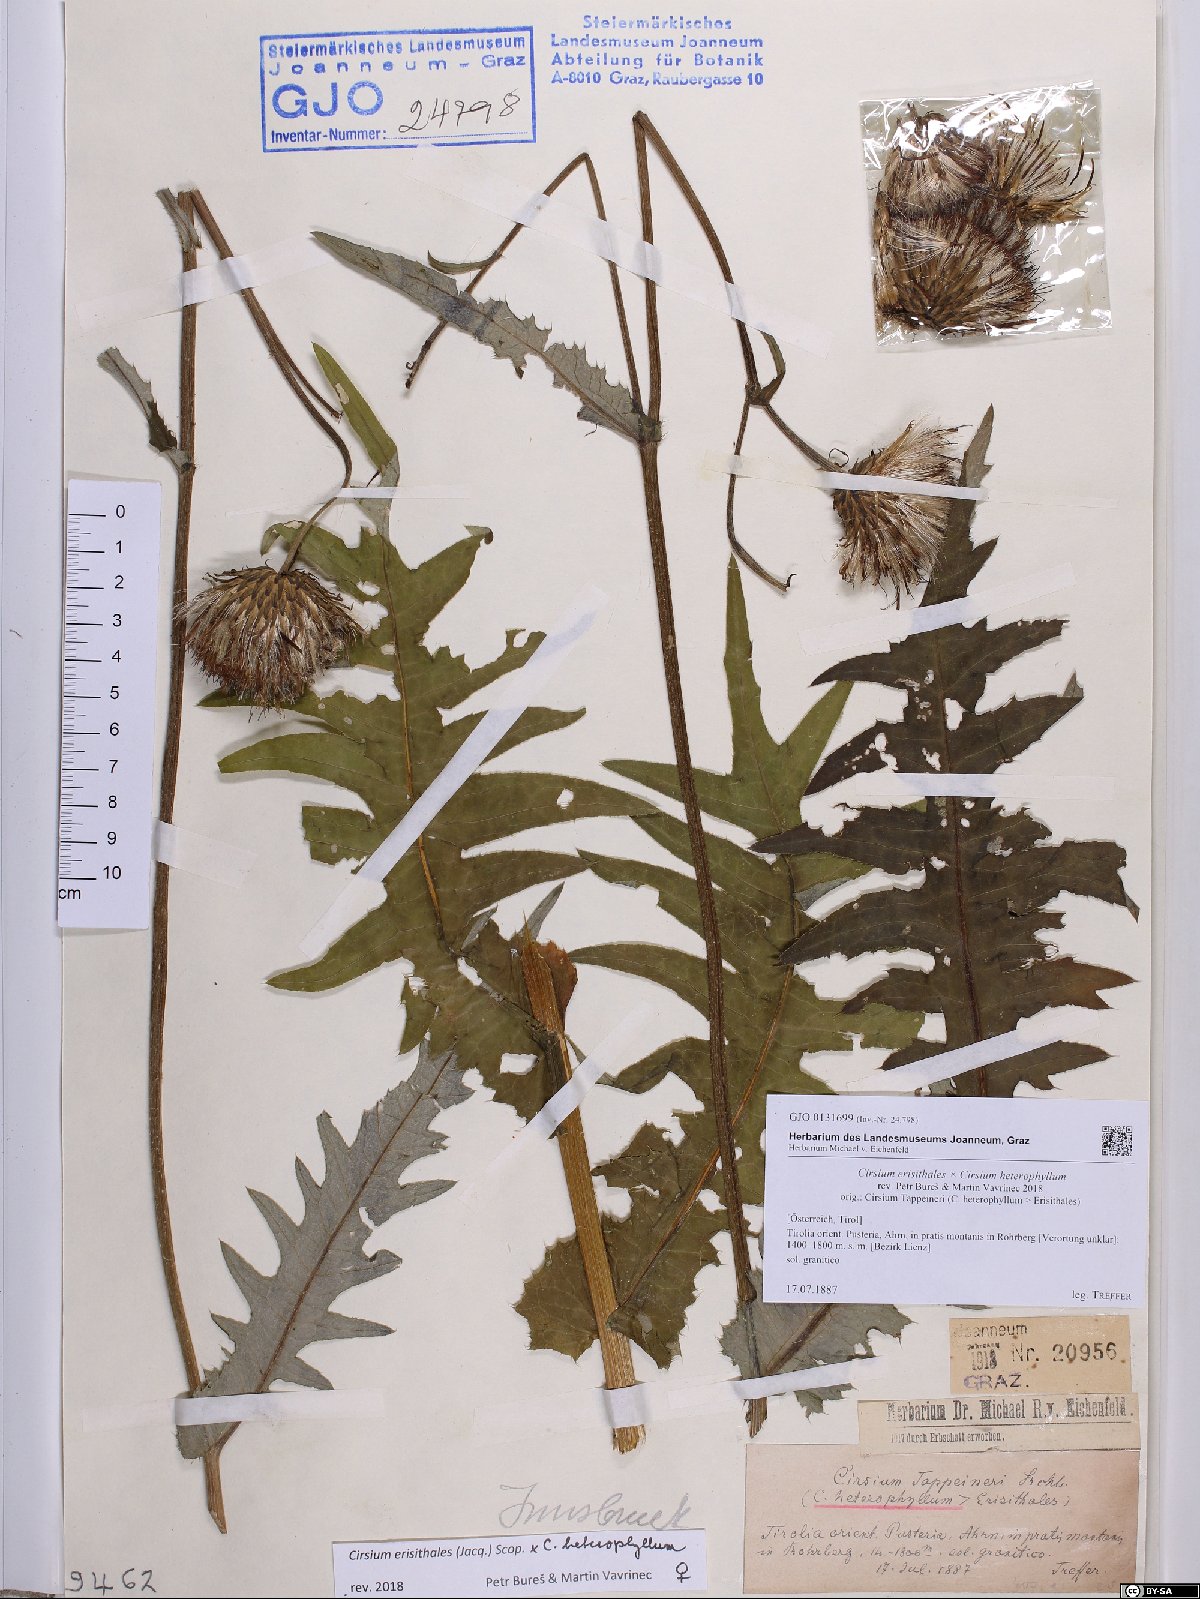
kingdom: Plantae
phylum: Tracheophyta
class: Magnoliopsida
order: Asterales
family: Asteraceae
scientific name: Asteraceae
